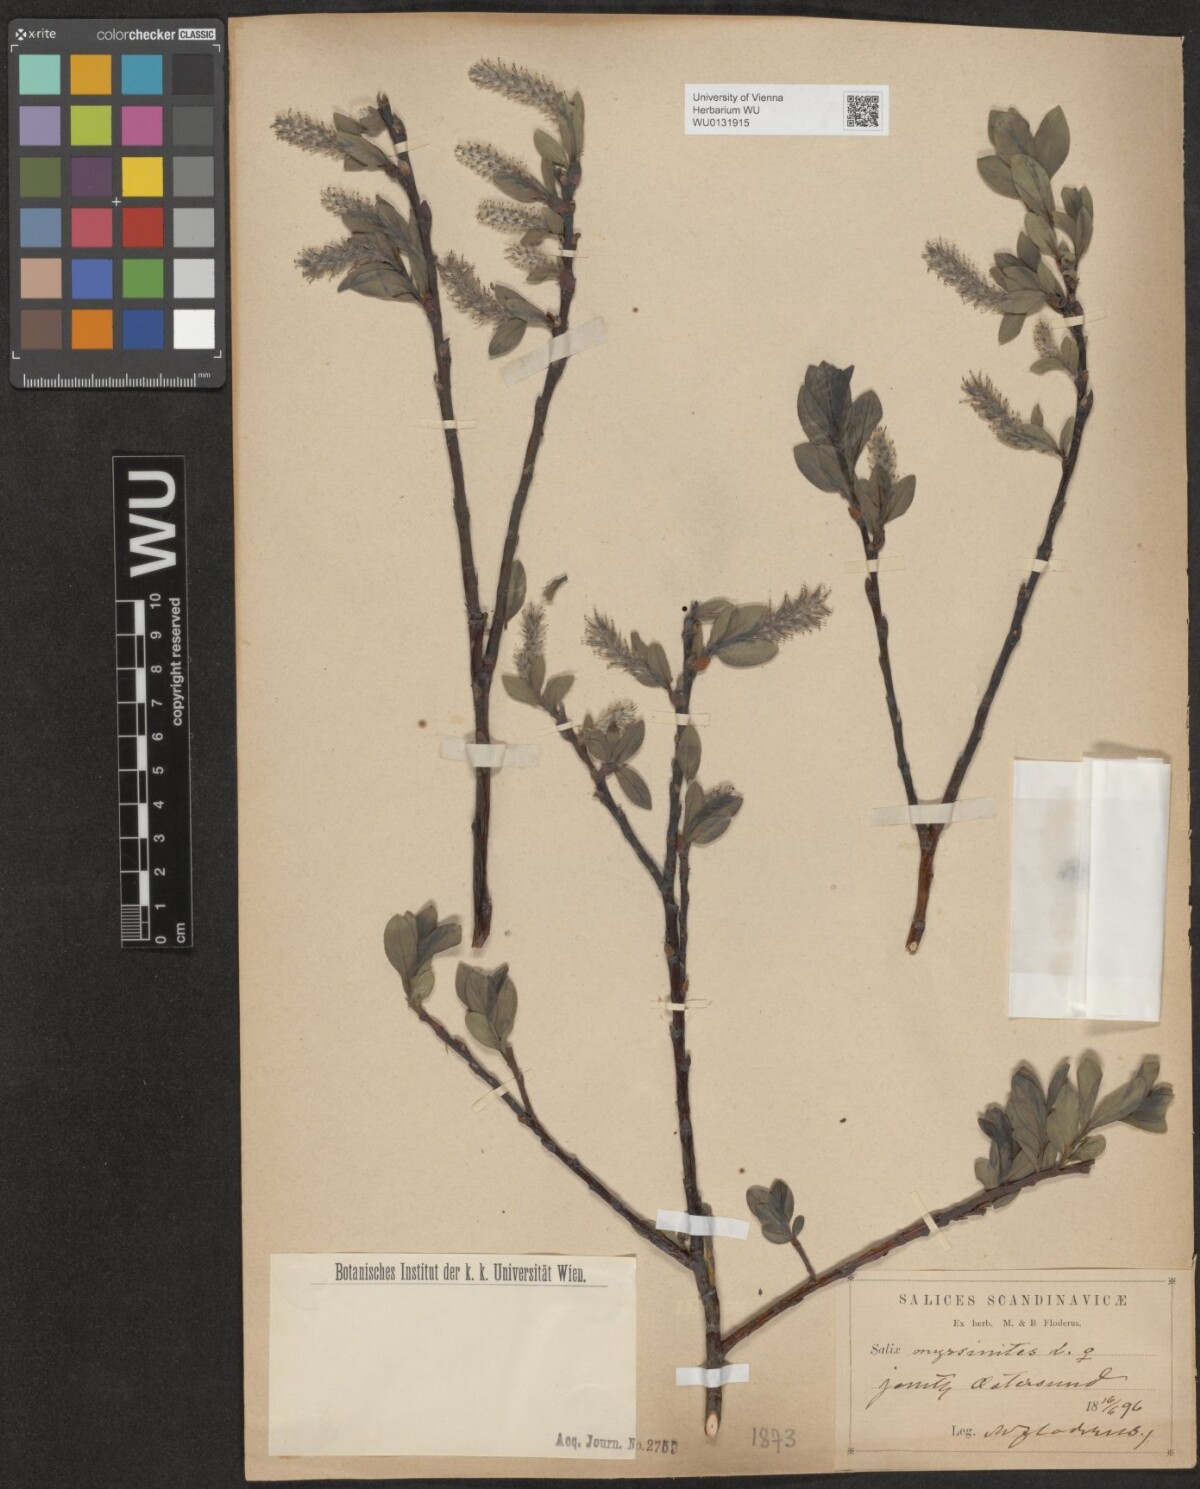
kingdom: Plantae
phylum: Tracheophyta
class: Magnoliopsida
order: Malpighiales
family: Salicaceae
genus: Salix
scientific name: Salix myrsinites
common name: Myrtle willow
